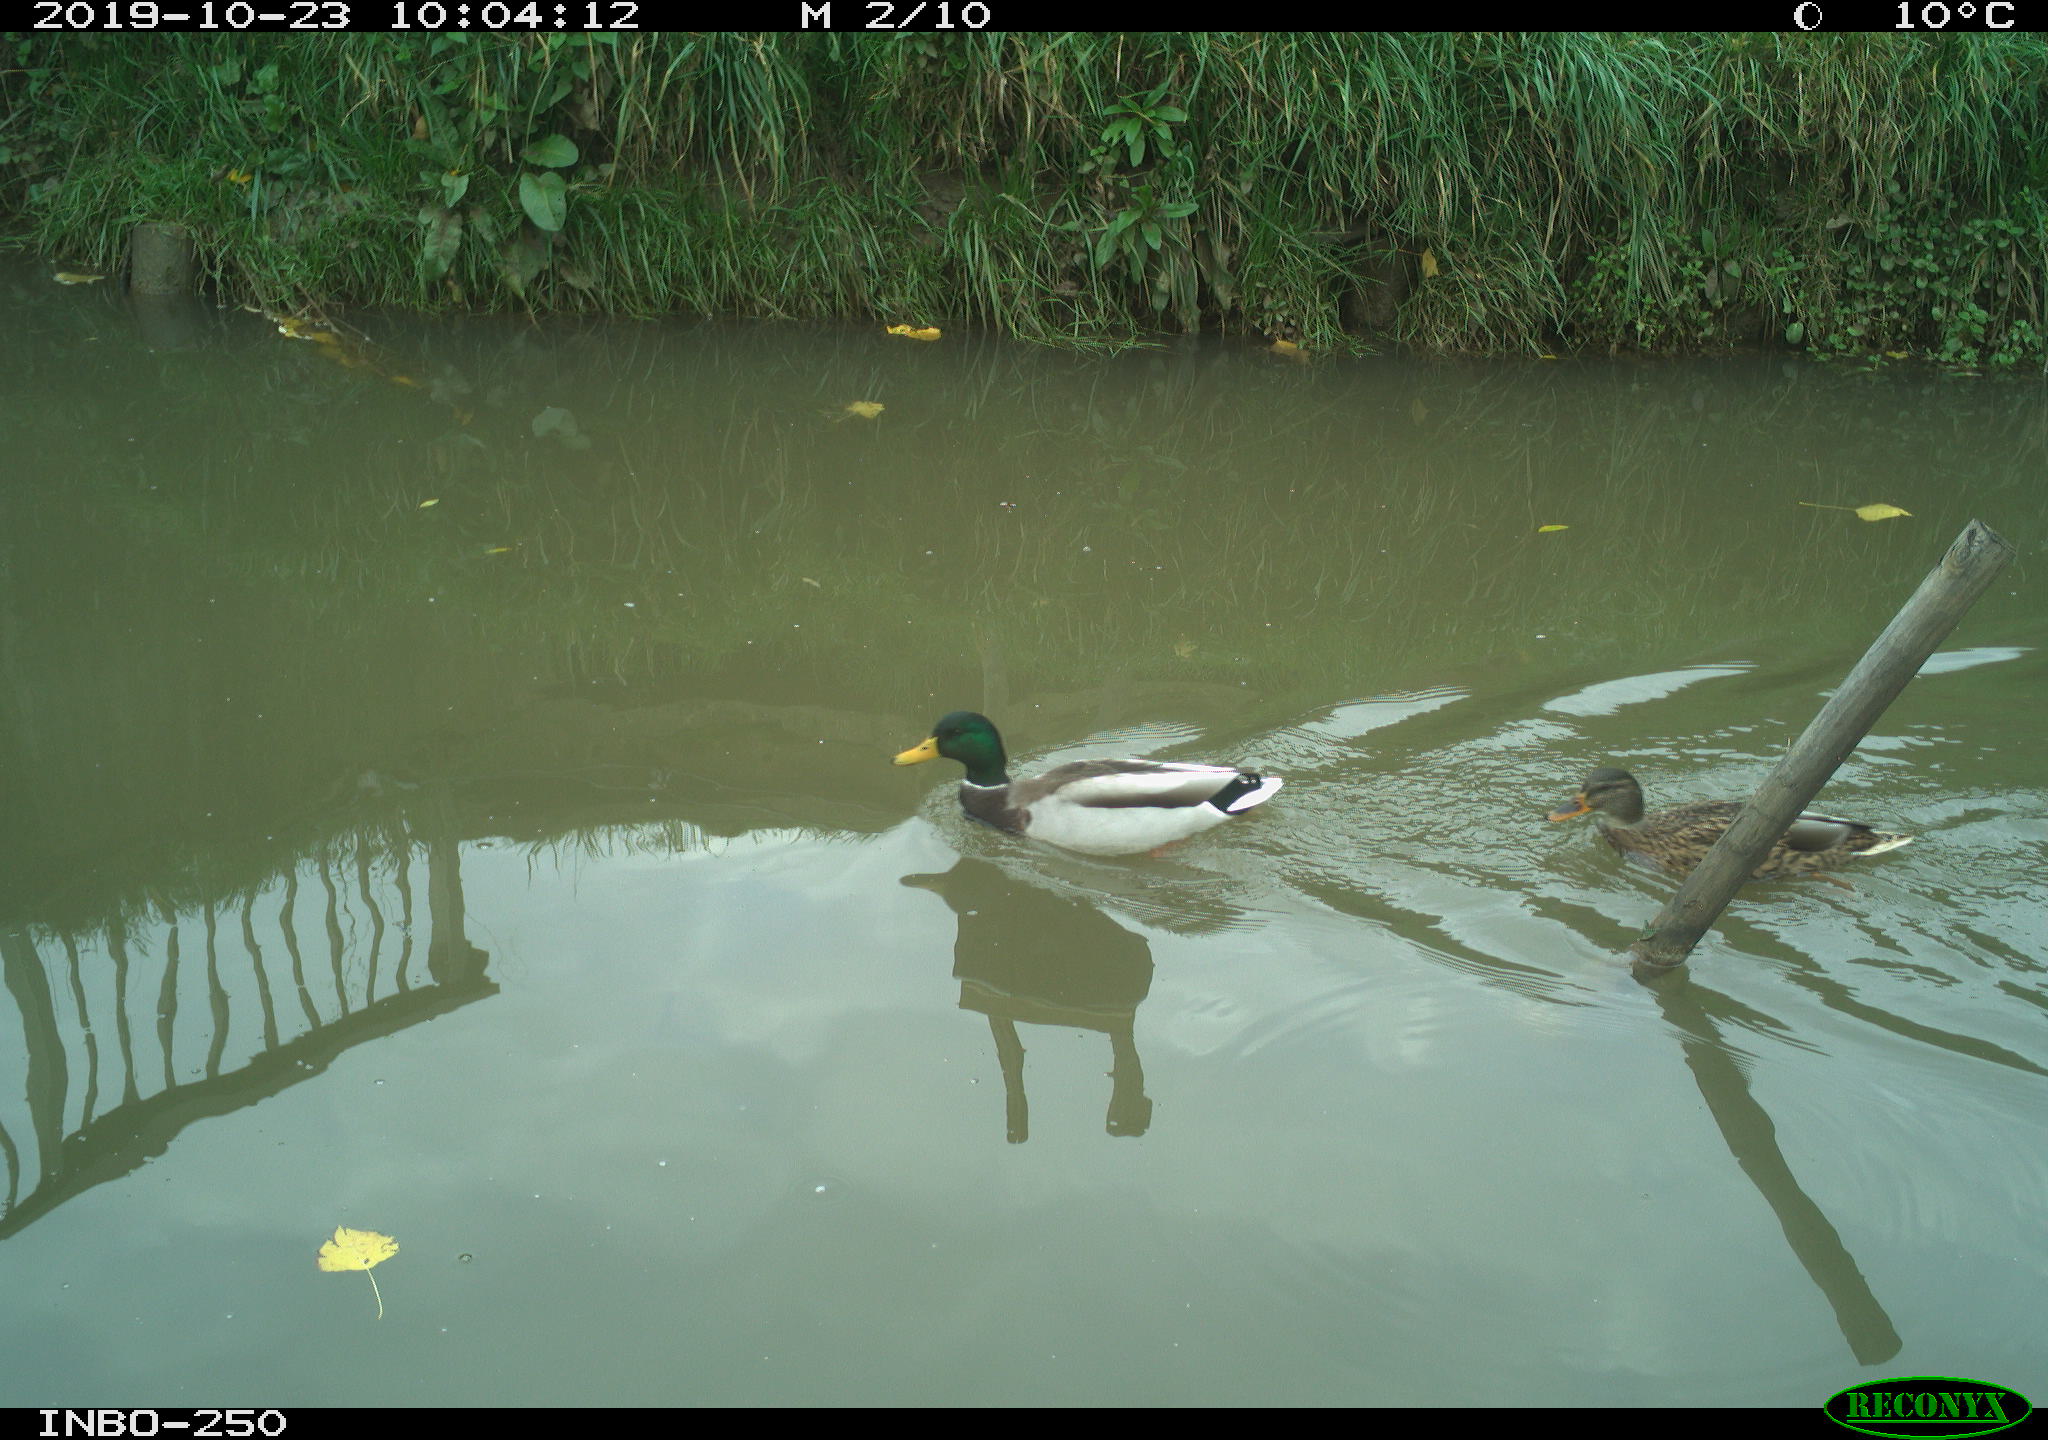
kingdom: Animalia
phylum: Chordata
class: Aves
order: Anseriformes
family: Anatidae
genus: Anas
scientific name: Anas platyrhynchos
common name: Mallard
